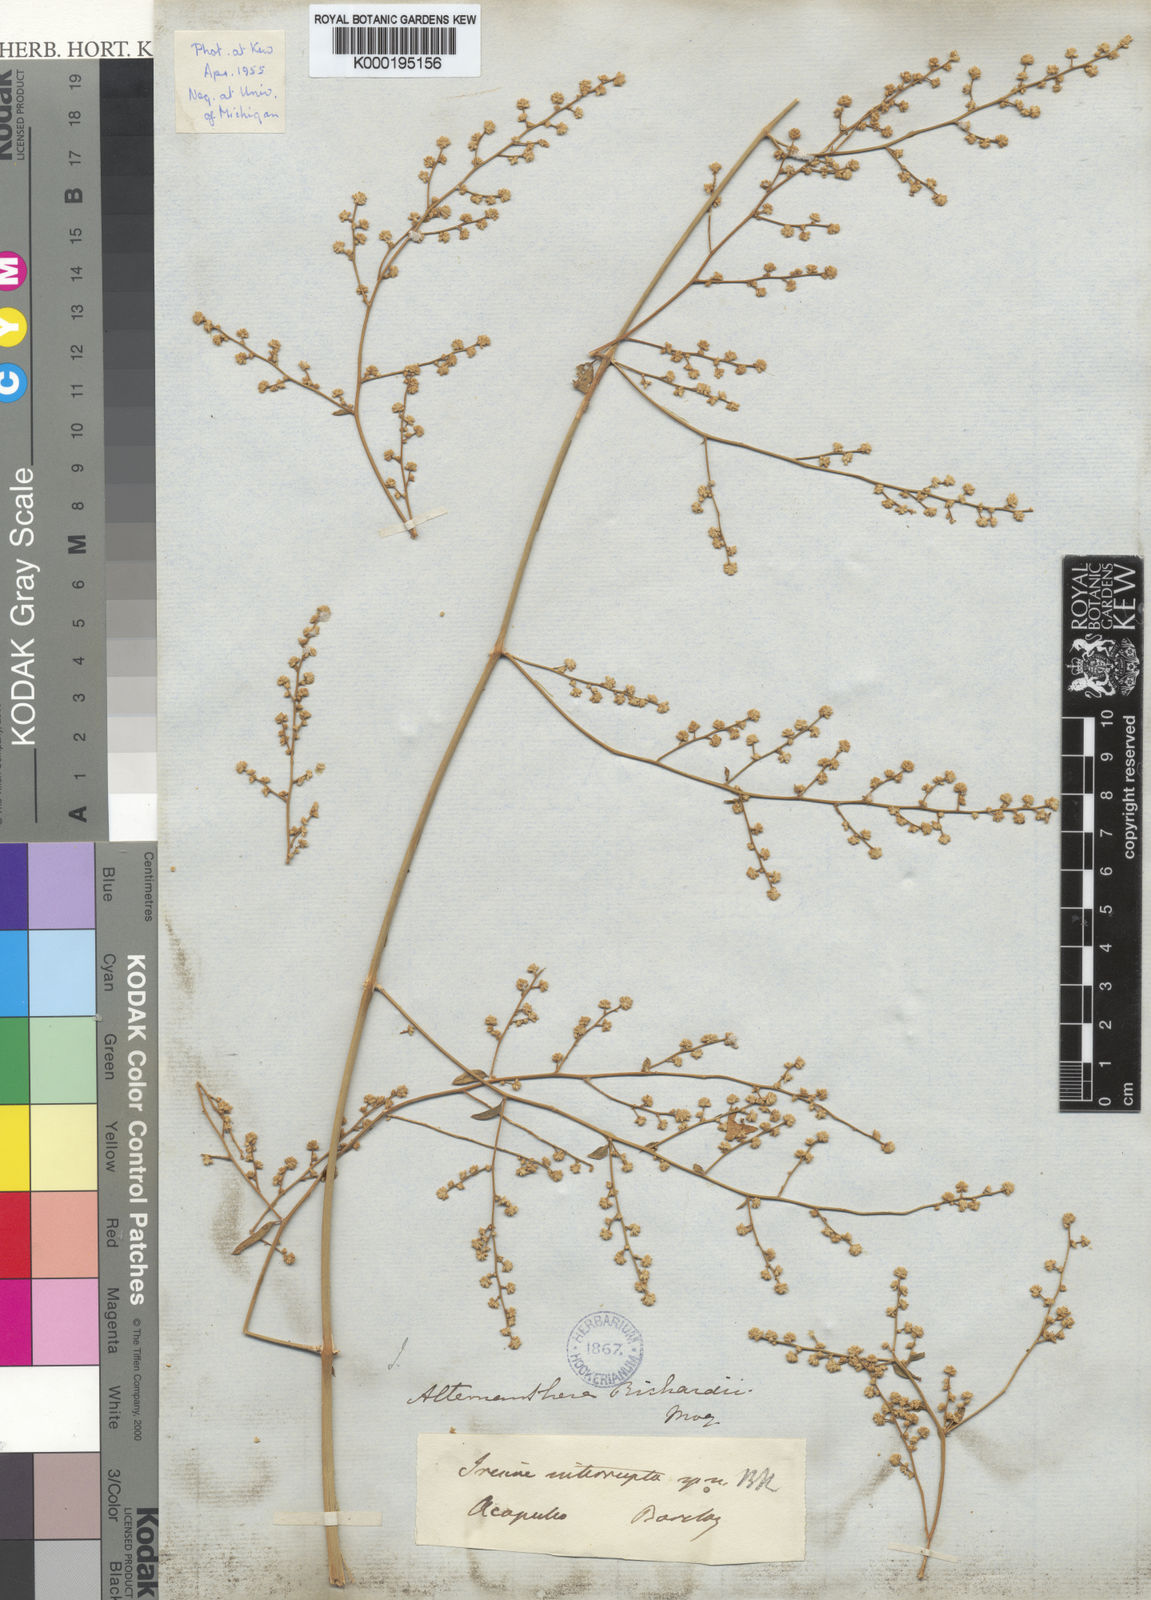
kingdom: Plantae
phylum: Tracheophyta
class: Magnoliopsida
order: Caryophyllales
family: Amaranthaceae
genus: Iresine
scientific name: Iresine interrupta
